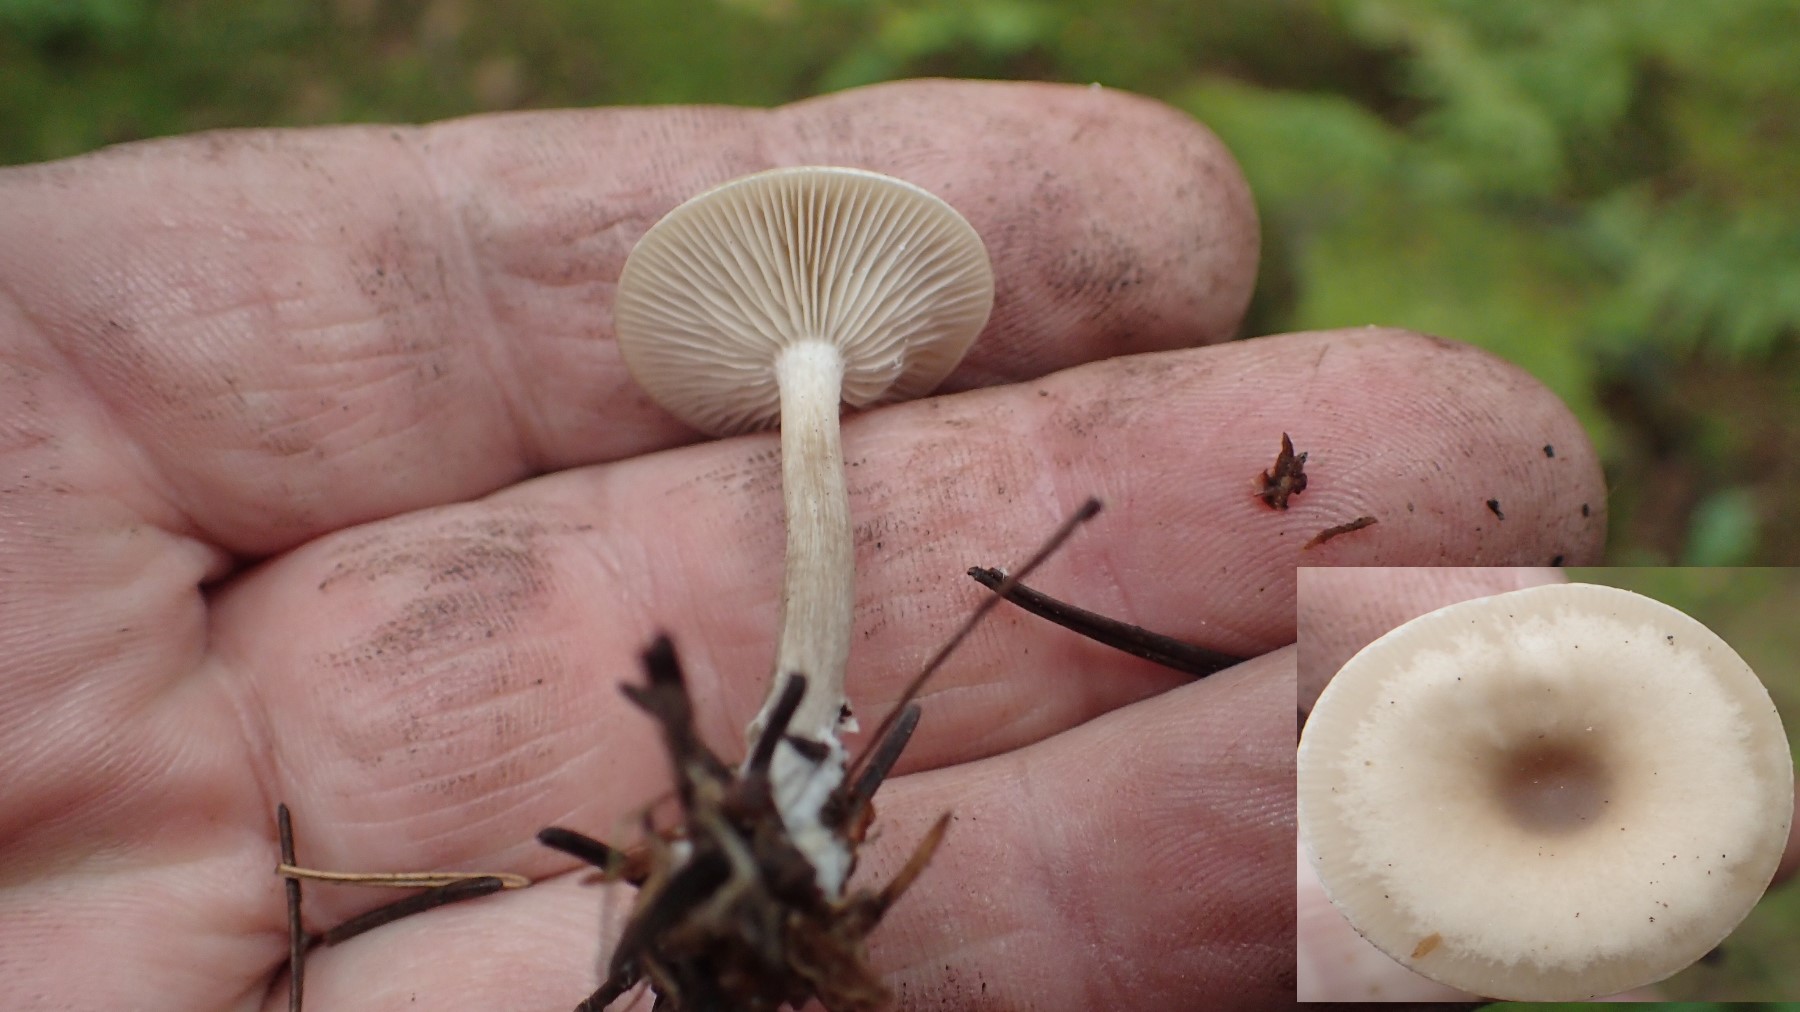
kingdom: Fungi
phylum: Basidiomycota
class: Agaricomycetes
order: Agaricales
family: Tricholomataceae
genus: Clitocybe
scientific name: Clitocybe metachroa
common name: grå tragthat
